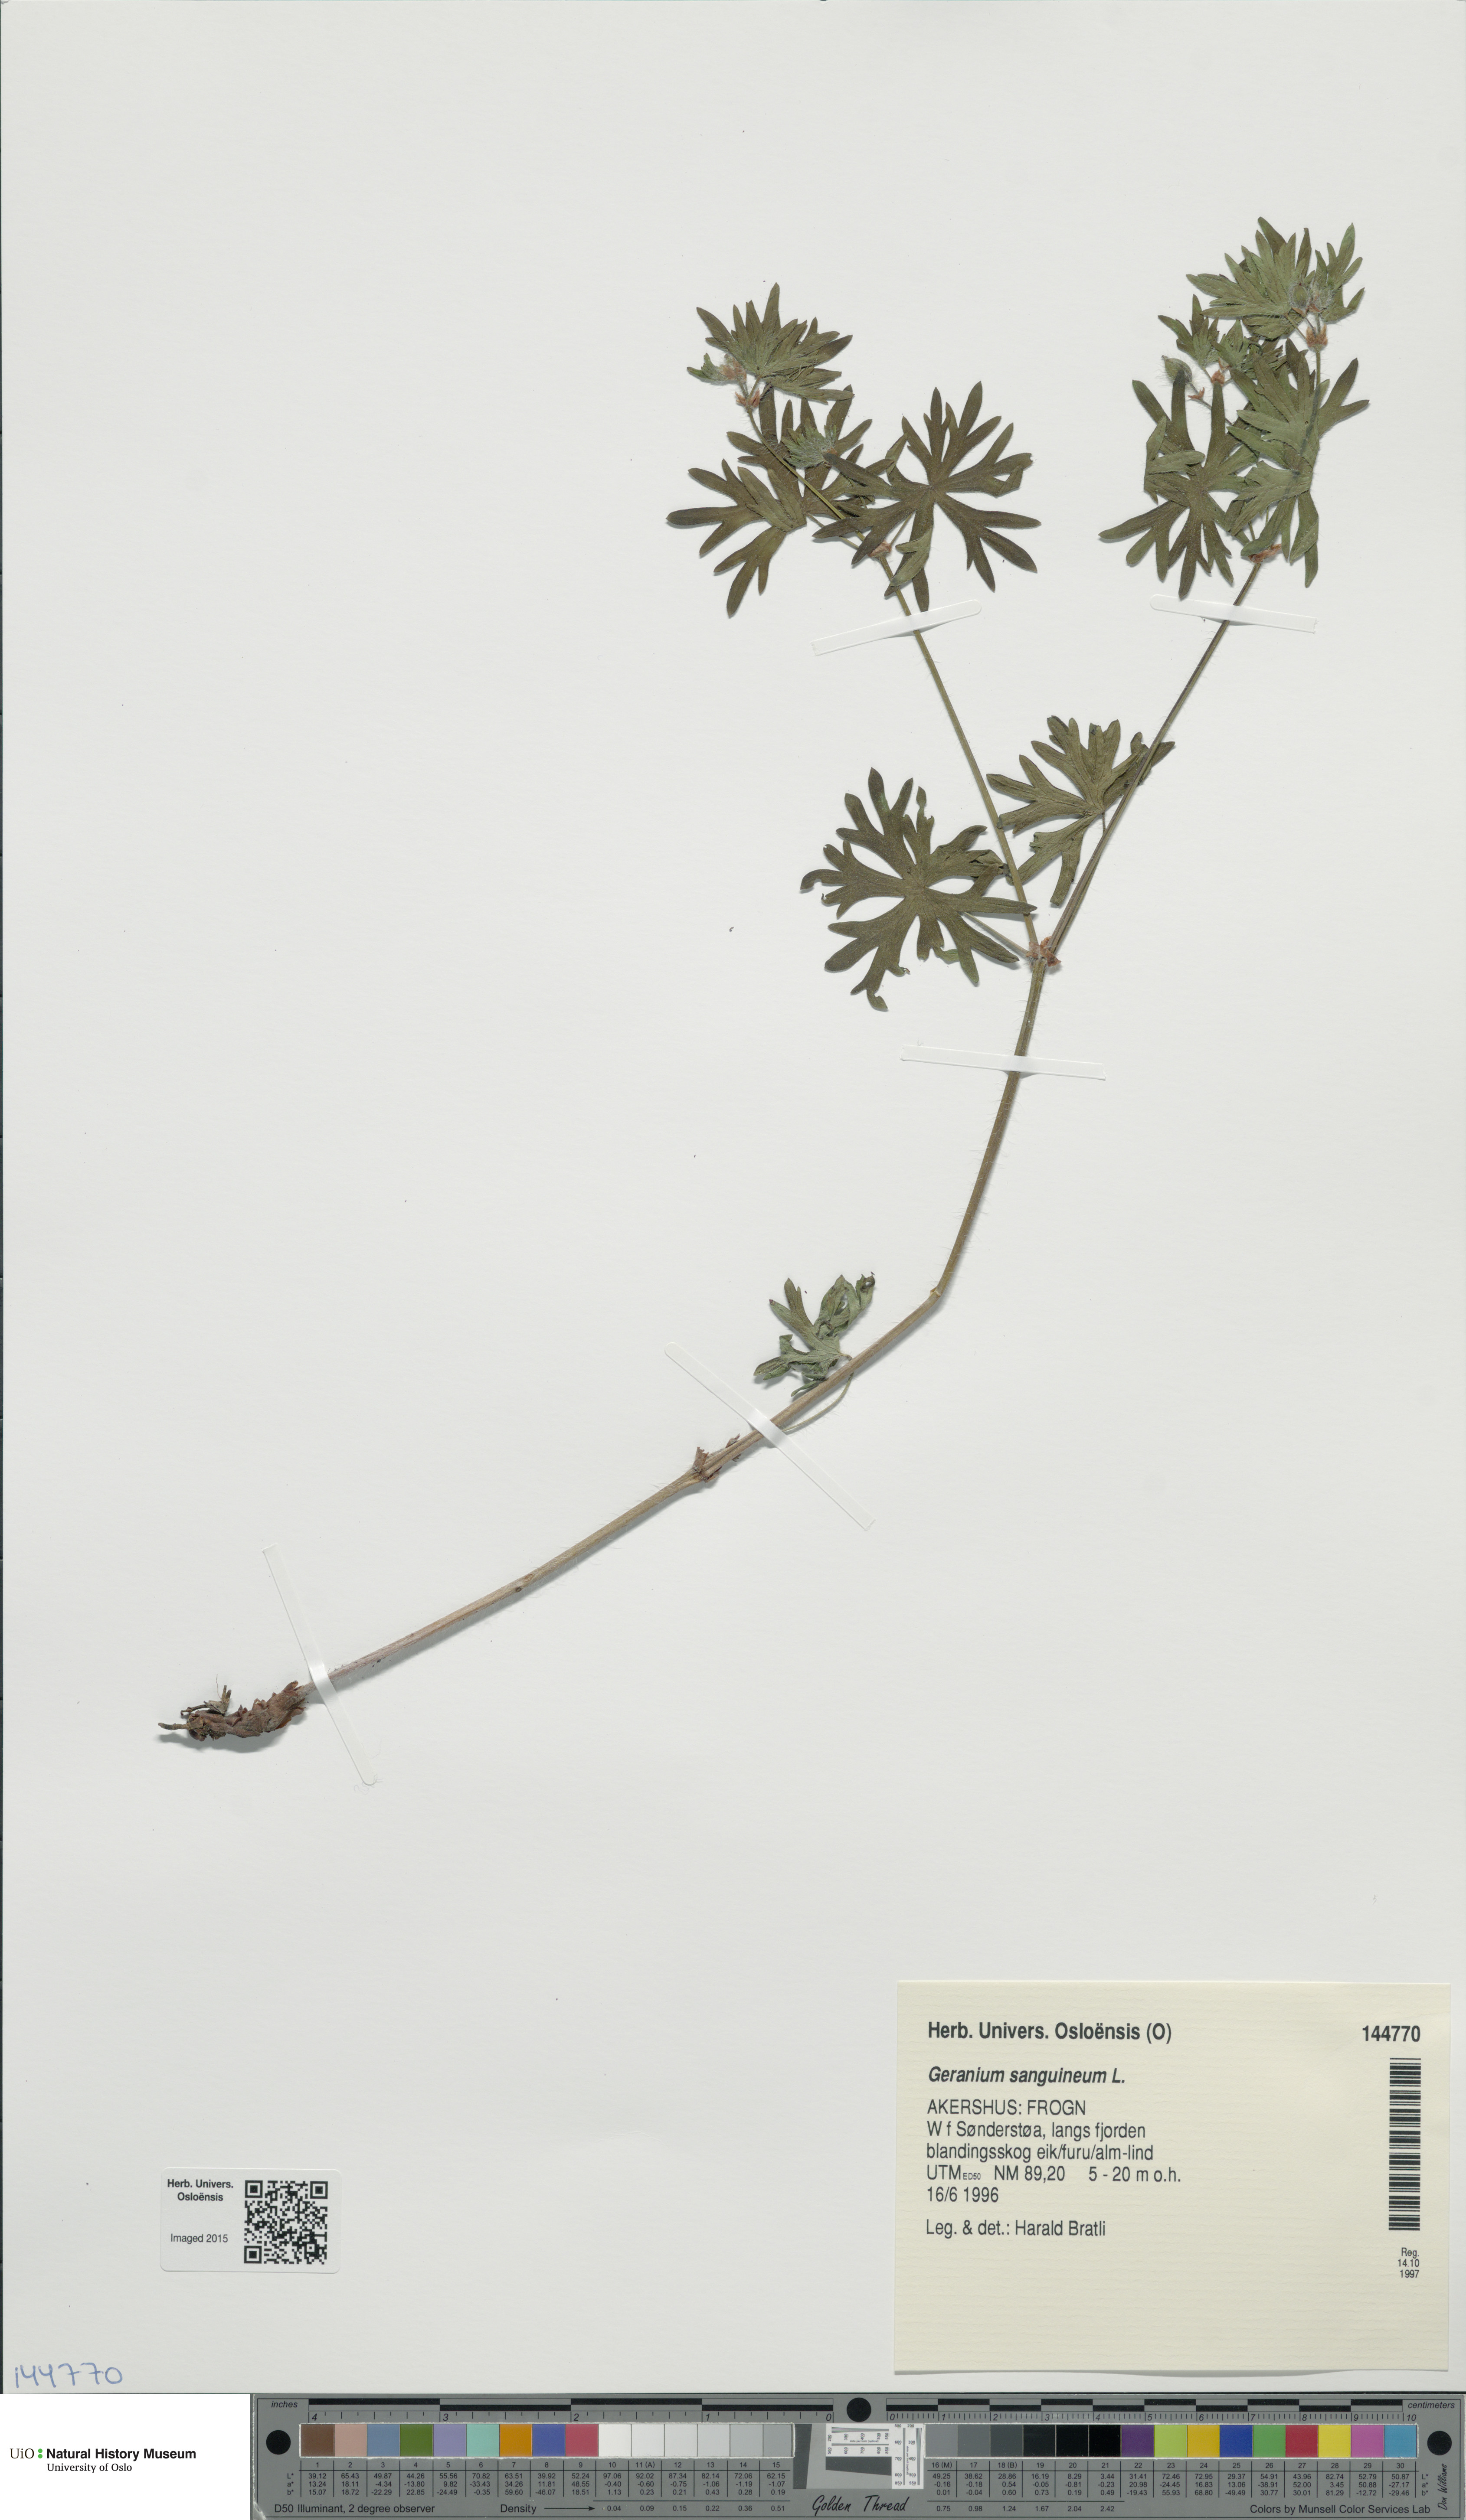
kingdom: Plantae
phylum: Tracheophyta
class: Magnoliopsida
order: Geraniales
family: Geraniaceae
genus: Geranium
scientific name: Geranium sanguineum
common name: Bloody crane's-bill
